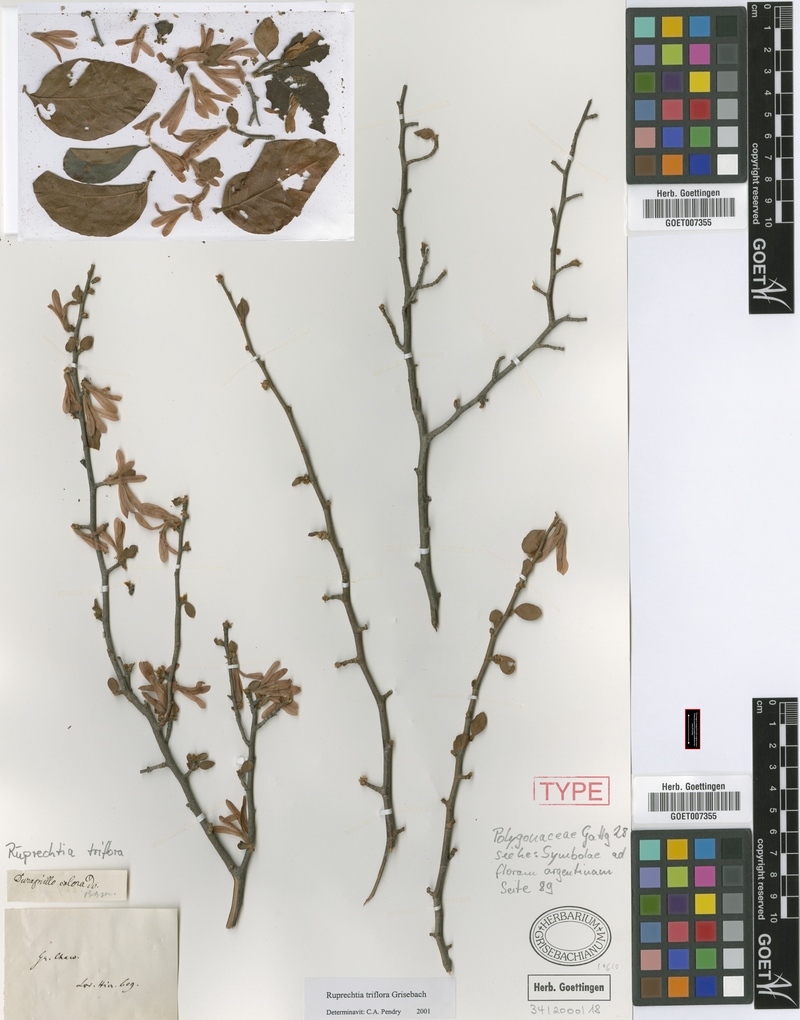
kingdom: Plantae
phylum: Tracheophyta
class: Magnoliopsida
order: Caryophyllales
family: Polygonaceae
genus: Salta
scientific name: Salta triflora
